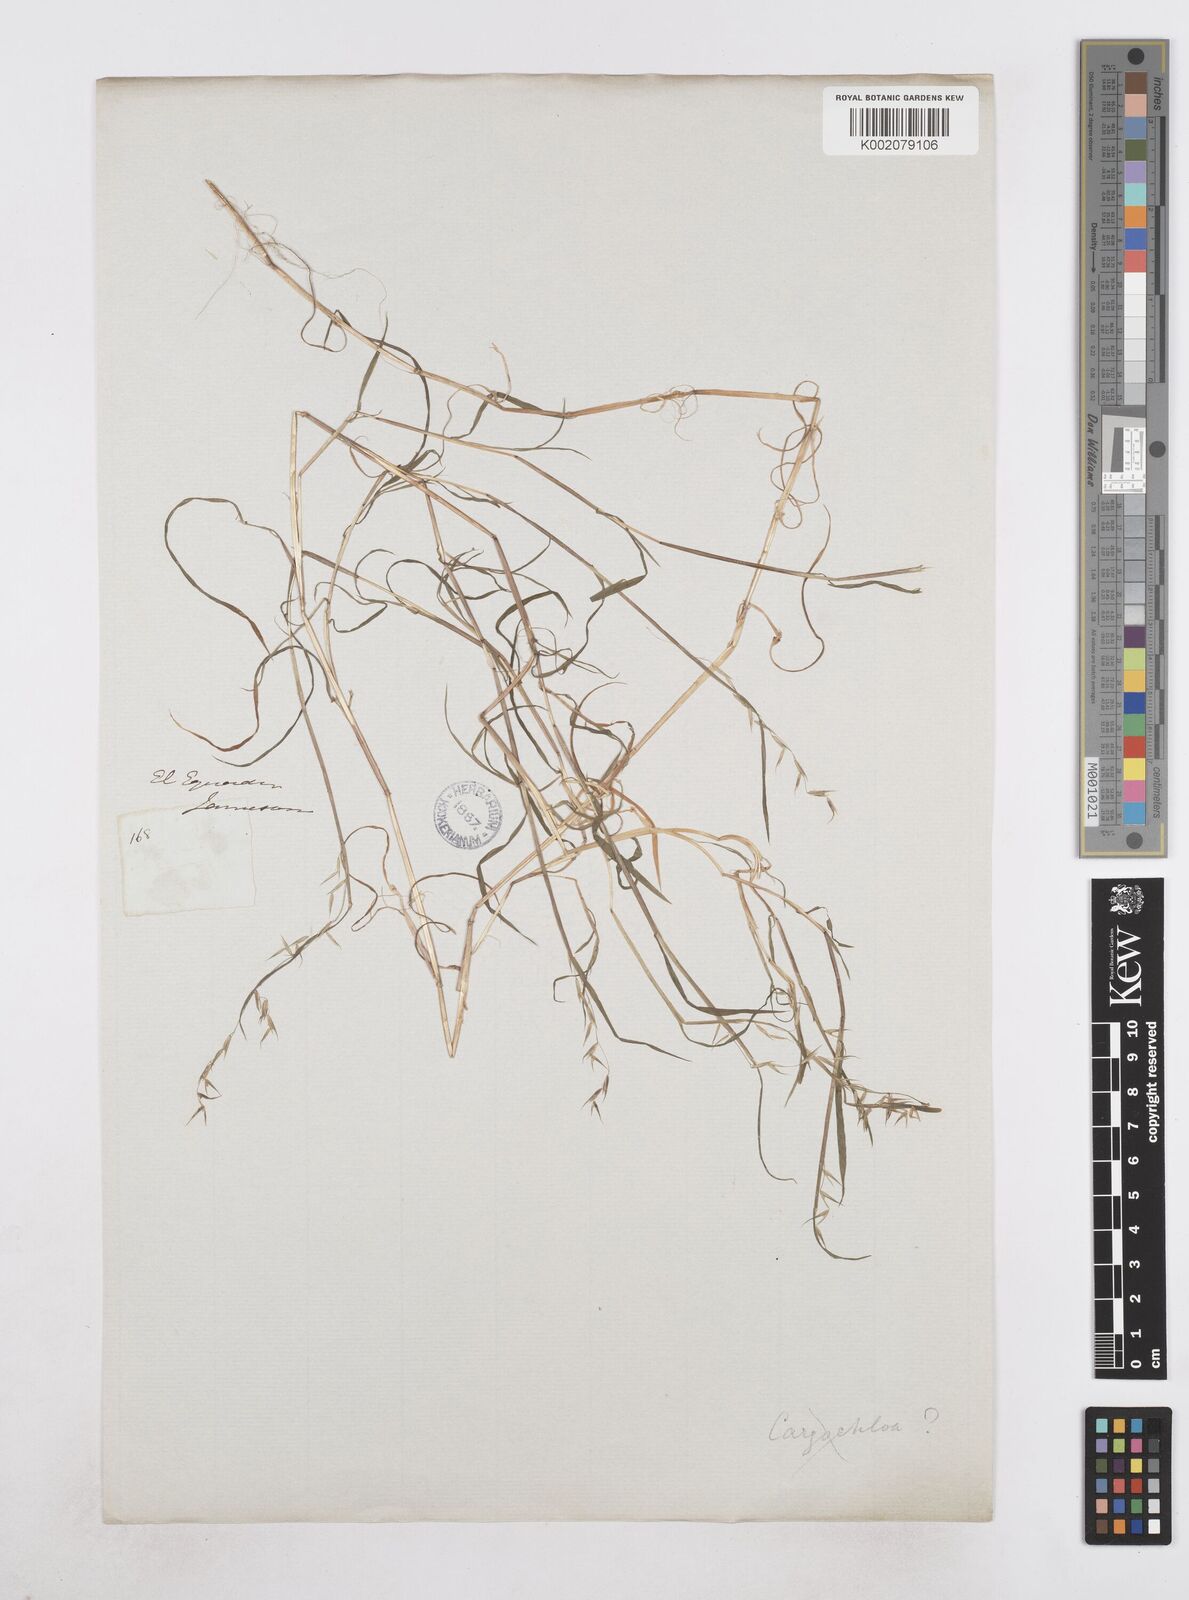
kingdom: Plantae
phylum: Tracheophyta
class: Liliopsida
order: Poales
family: Poaceae
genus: Poa
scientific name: Poa hitchcockiana
